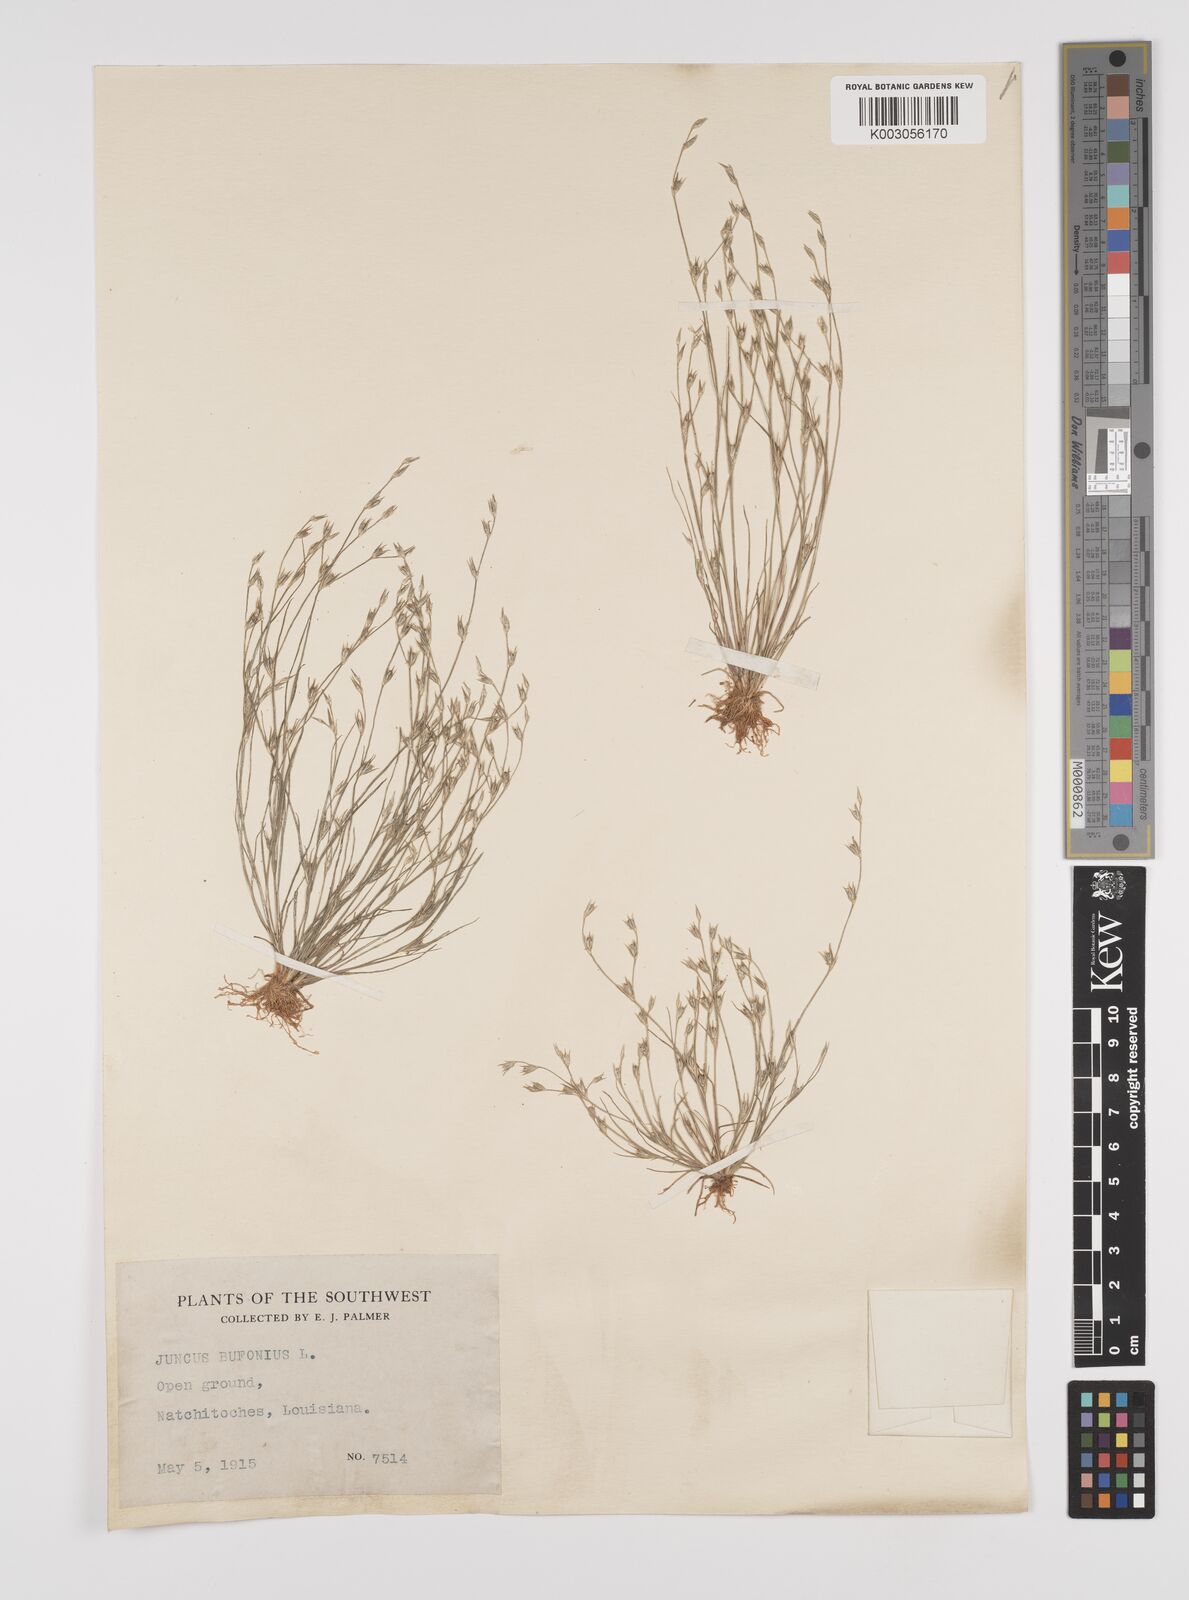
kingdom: Plantae
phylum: Tracheophyta
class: Liliopsida
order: Poales
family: Juncaceae
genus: Juncus
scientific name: Juncus bufonius
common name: Toad rush
